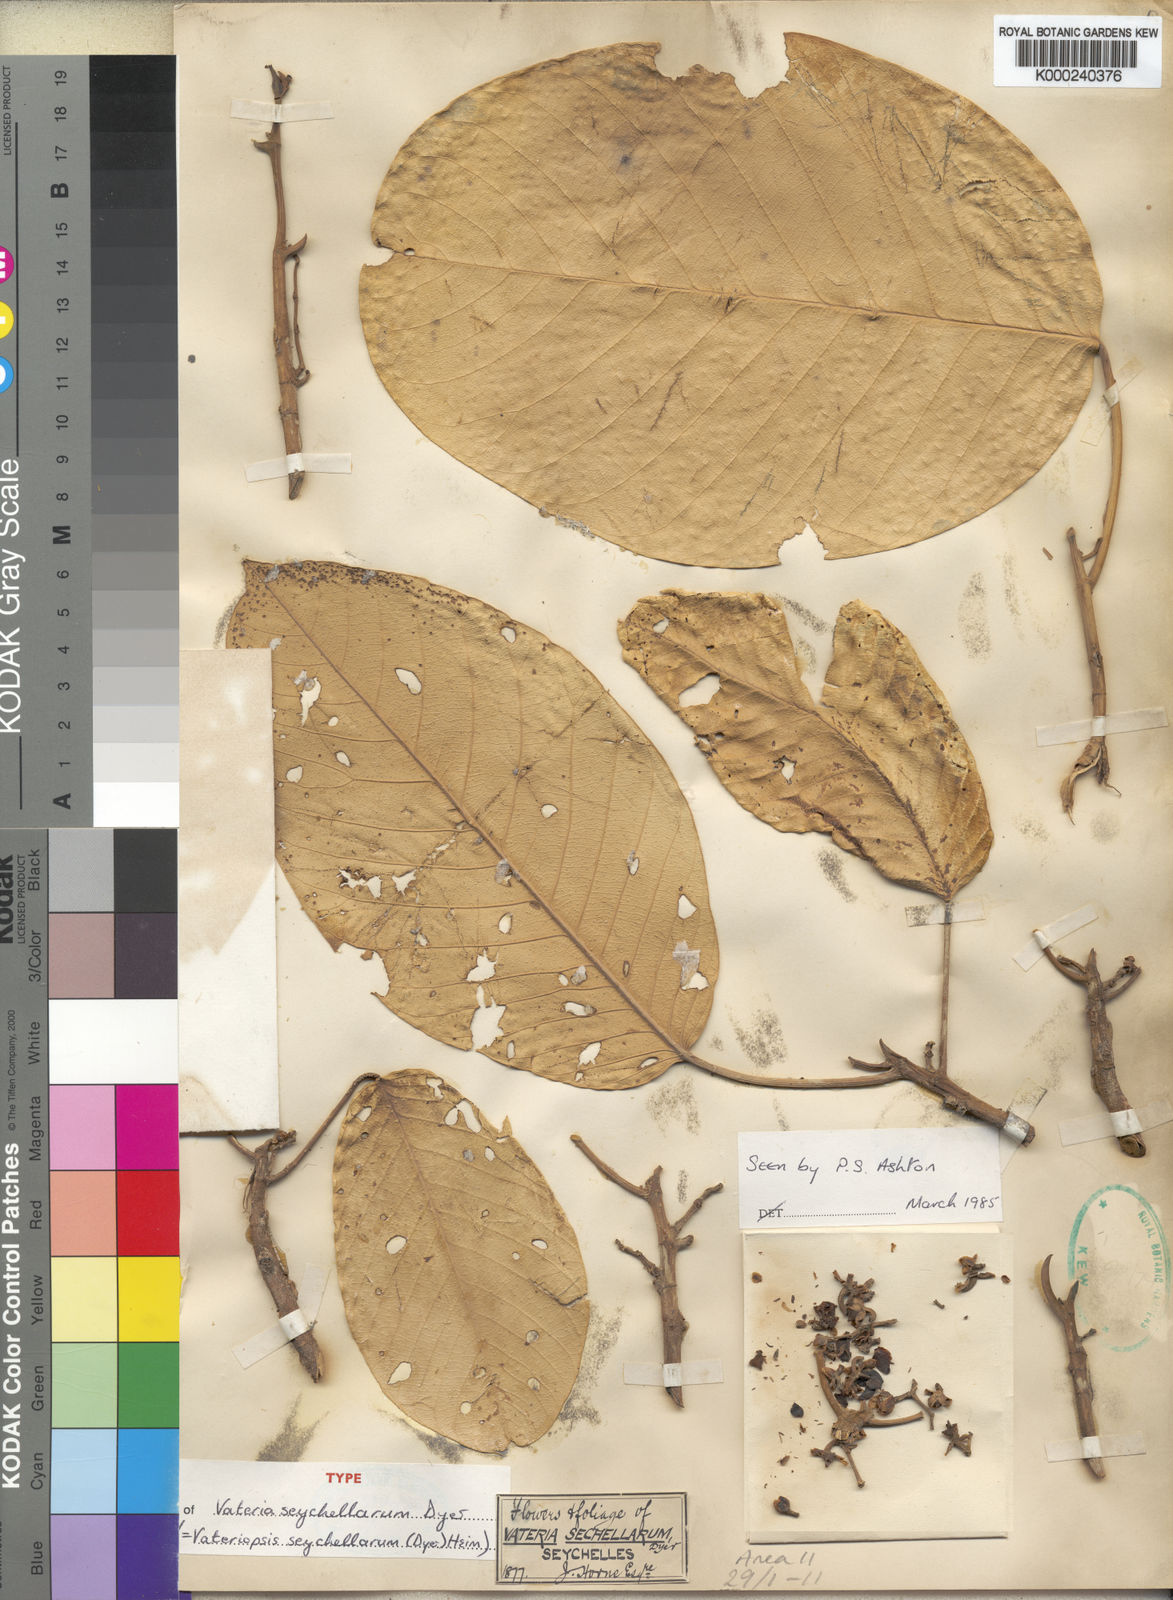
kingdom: Plantae
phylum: Tracheophyta
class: Magnoliopsida
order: Malvales
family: Dipterocarpaceae
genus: Vateriopsis
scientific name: Vateriopsis seychellarum
